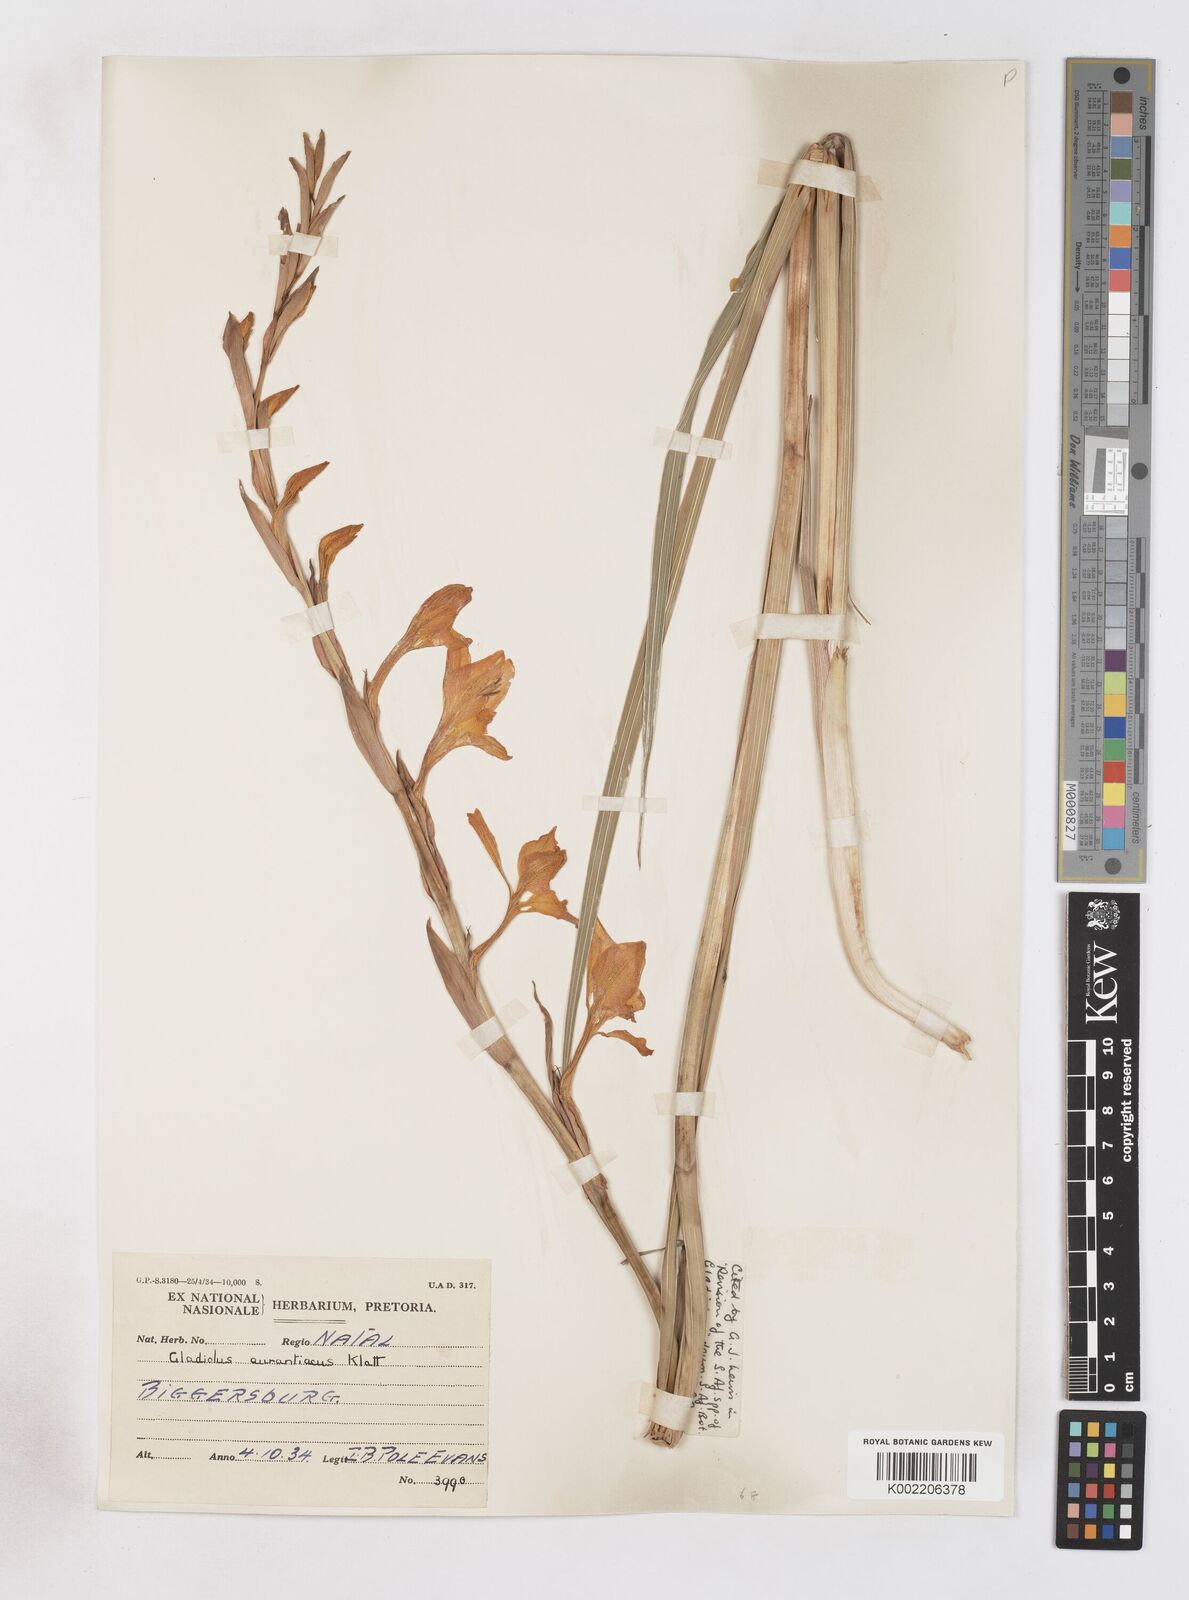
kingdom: Plantae
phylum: Tracheophyta
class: Liliopsida
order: Asparagales
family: Iridaceae
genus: Gladiolus
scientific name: Gladiolus aurantiacus
